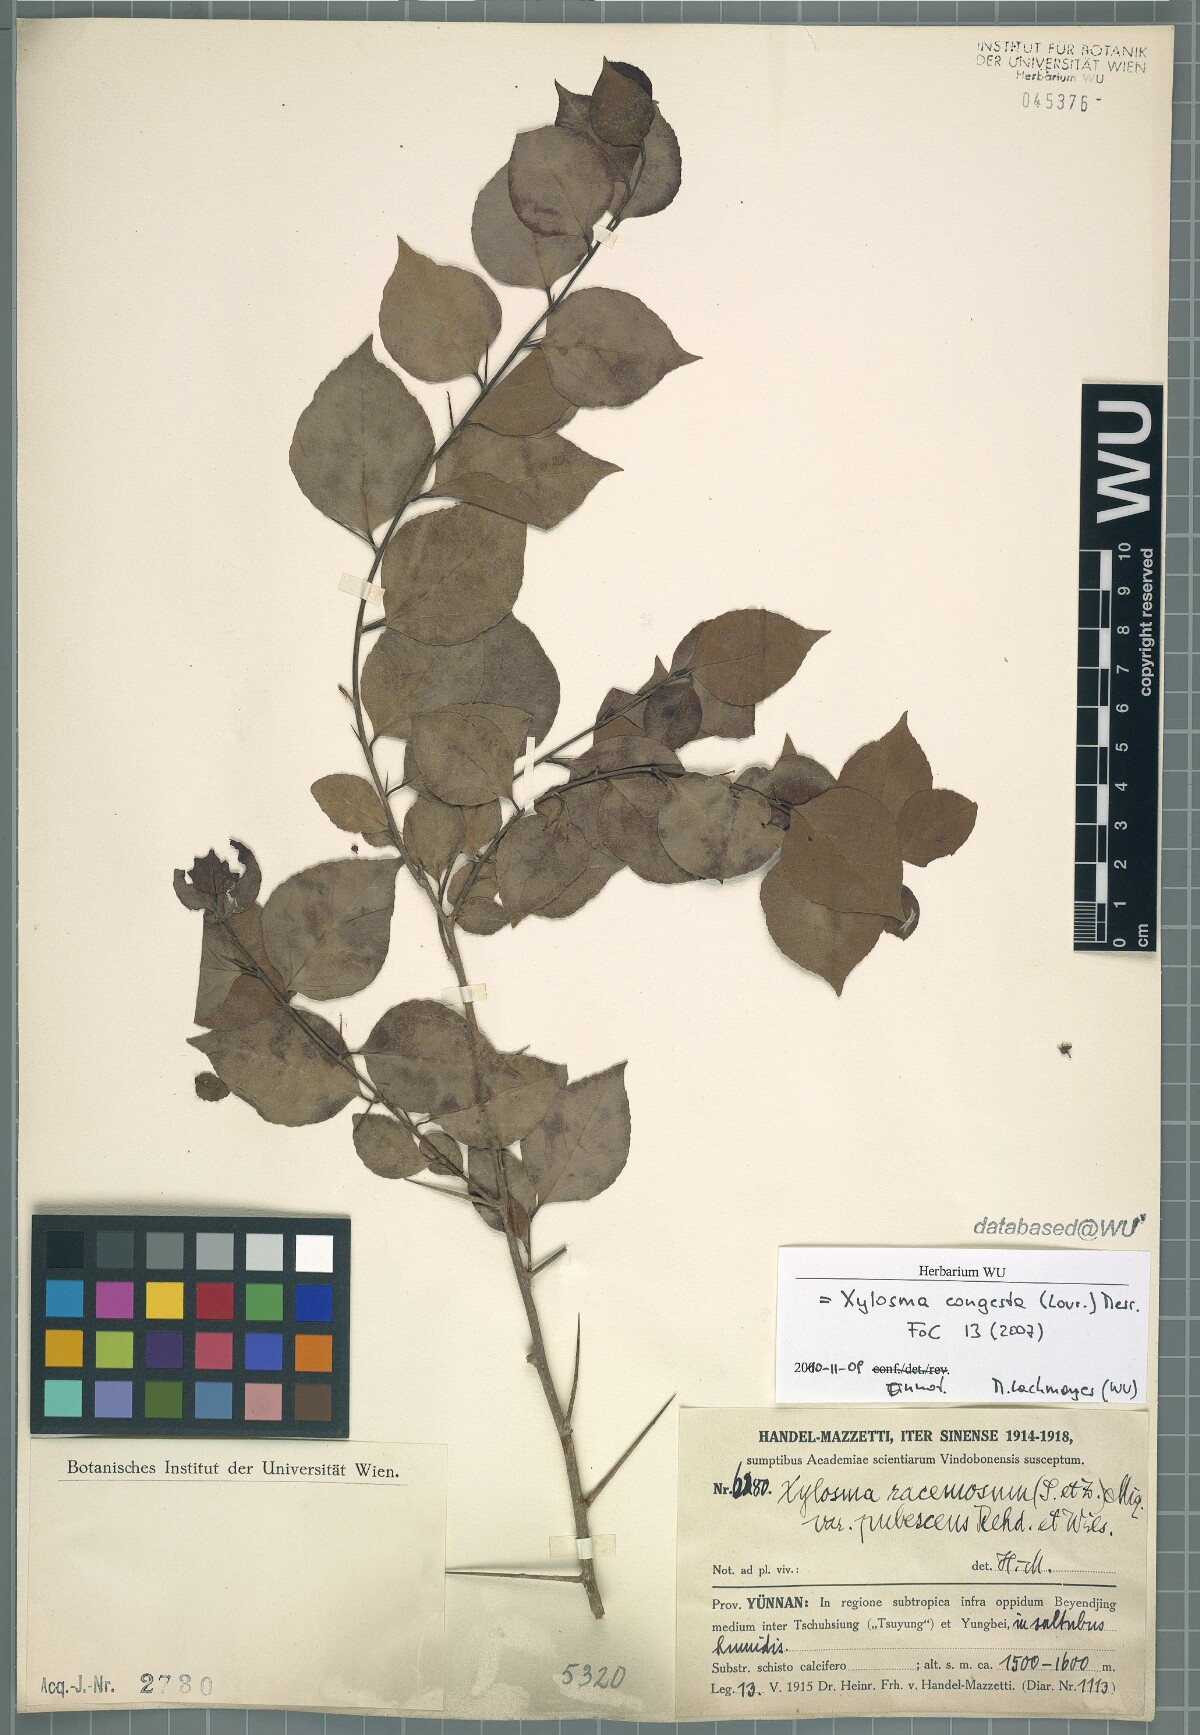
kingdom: Plantae
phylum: Tracheophyta
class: Magnoliopsida
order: Malpighiales
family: Salicaceae
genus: Xylosma
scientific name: Xylosma racemosum
